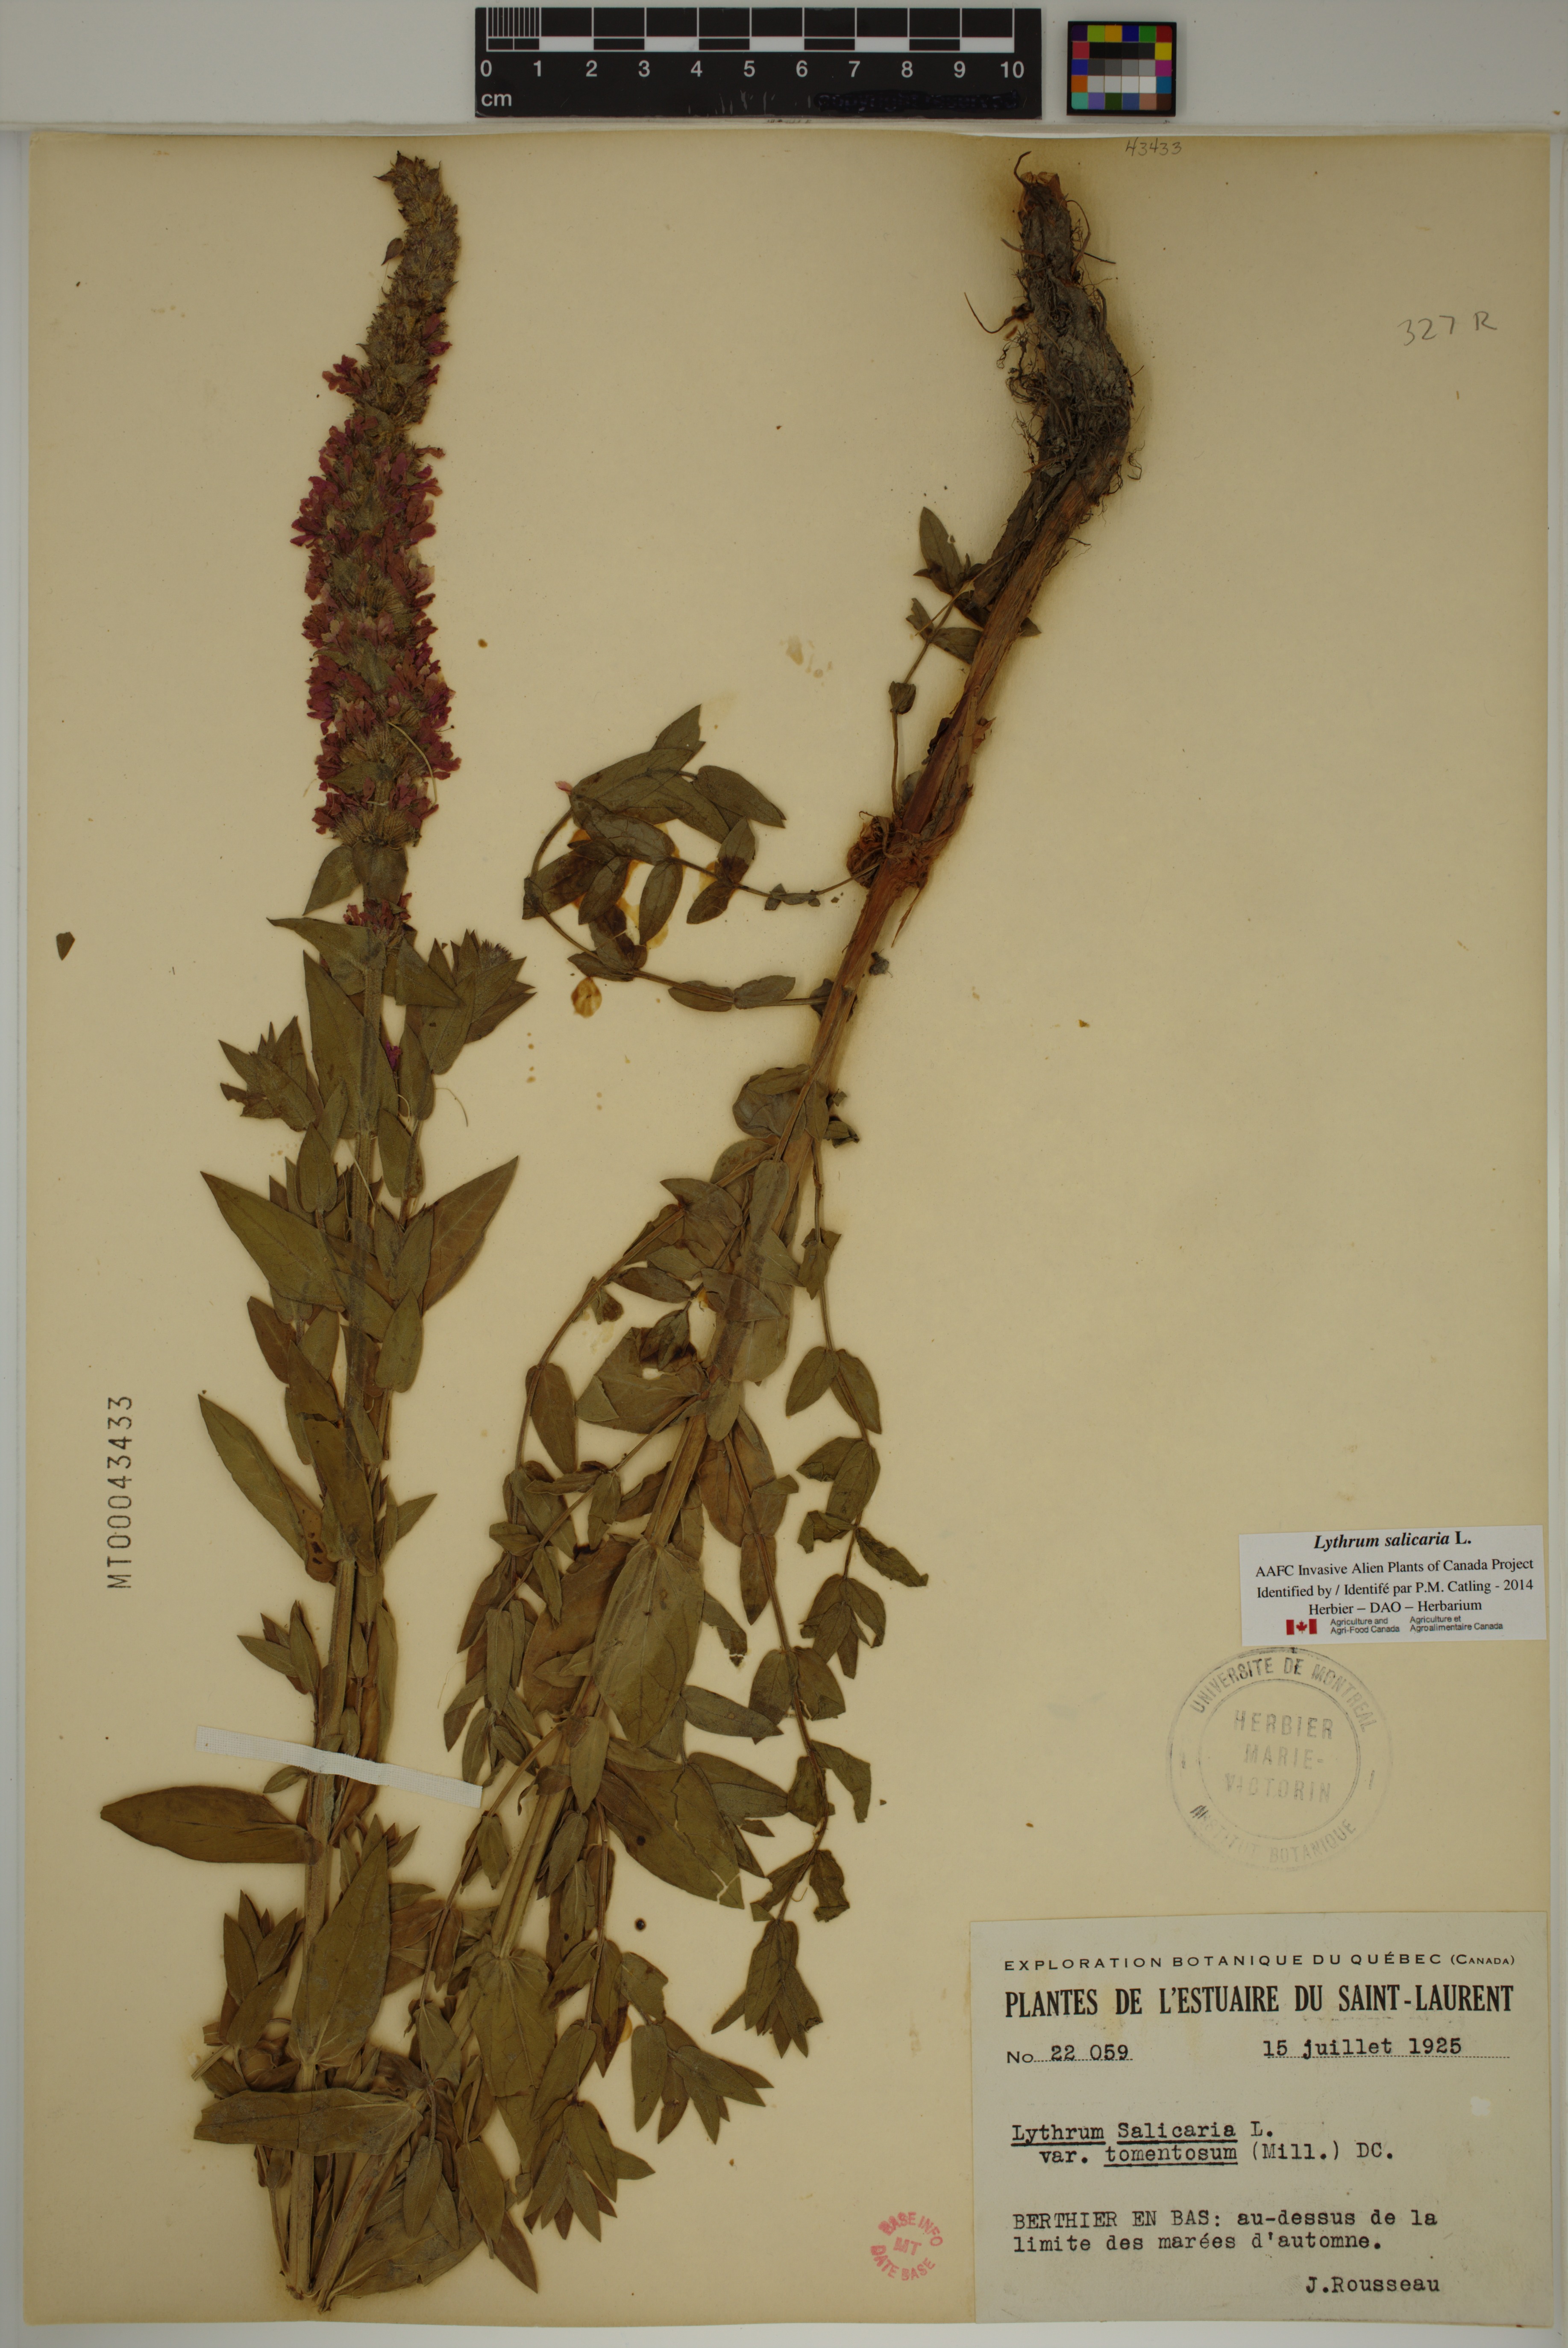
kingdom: Plantae
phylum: Tracheophyta
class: Magnoliopsida
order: Myrtales
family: Lythraceae
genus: Lythrum
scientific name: Lythrum salicaria
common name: Purple loosestrife
